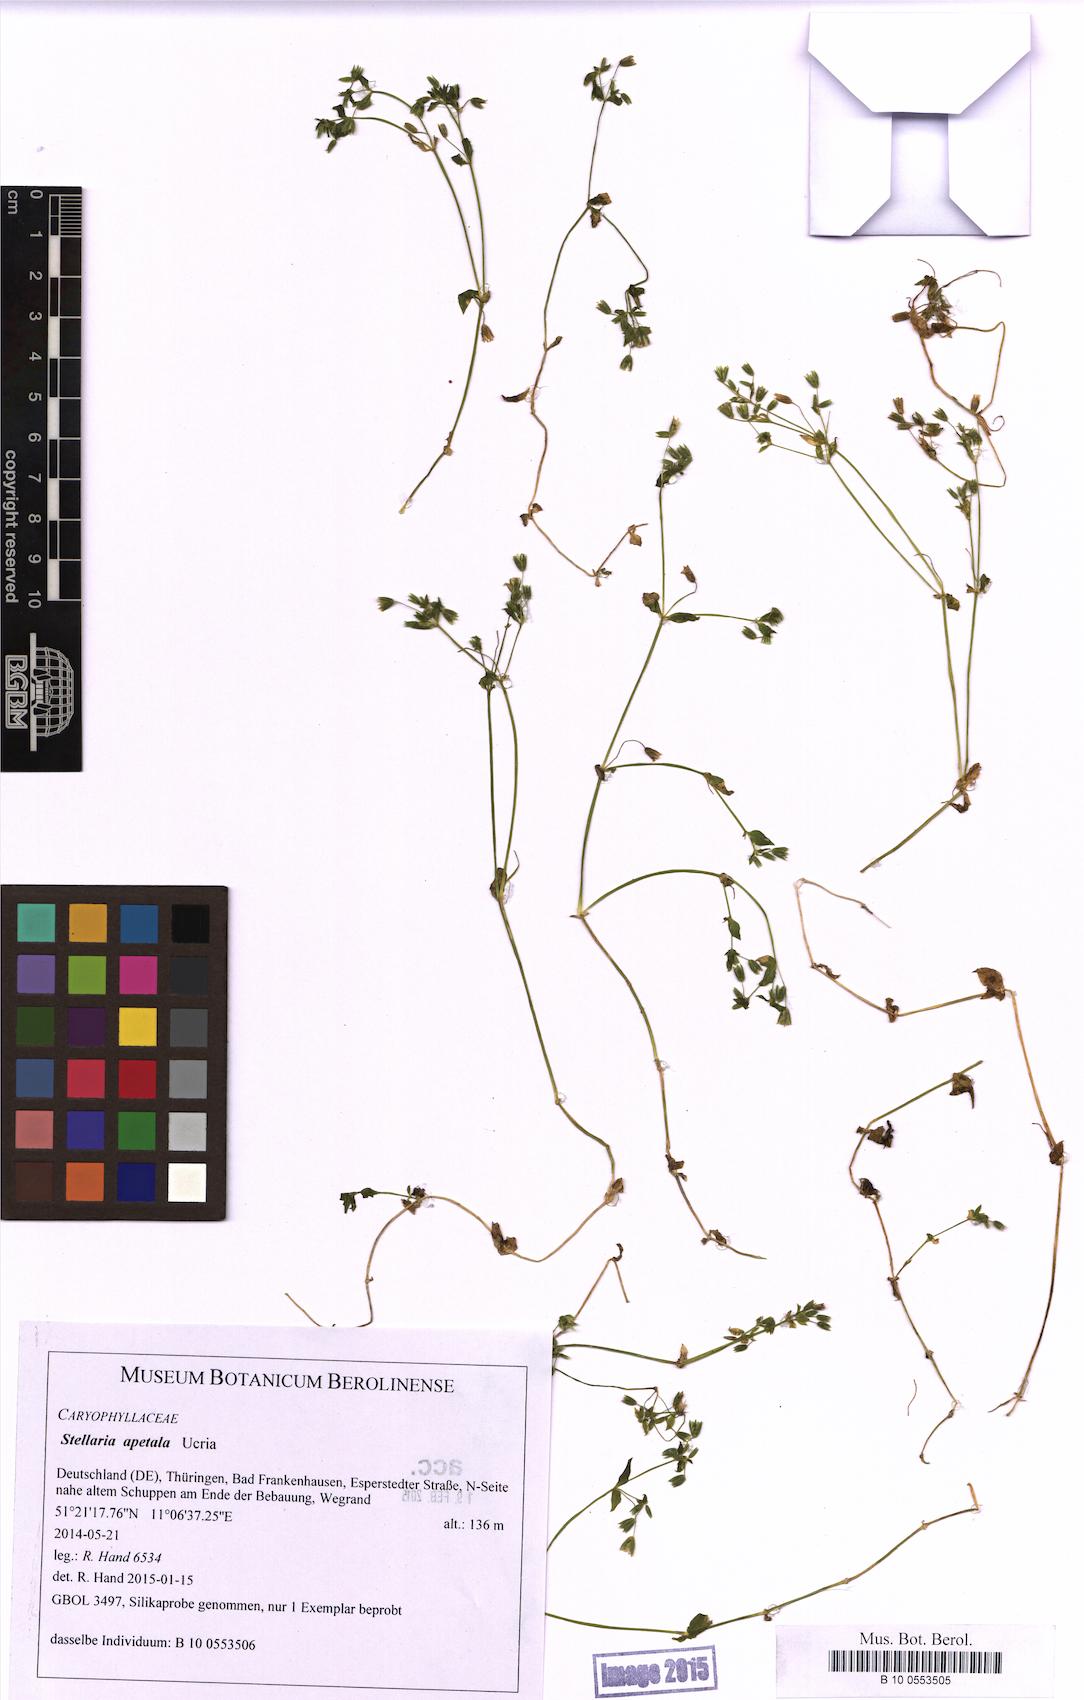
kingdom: Plantae
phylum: Tracheophyta
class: Magnoliopsida
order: Caryophyllales
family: Caryophyllaceae
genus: Stellaria
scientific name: Stellaria apetala
